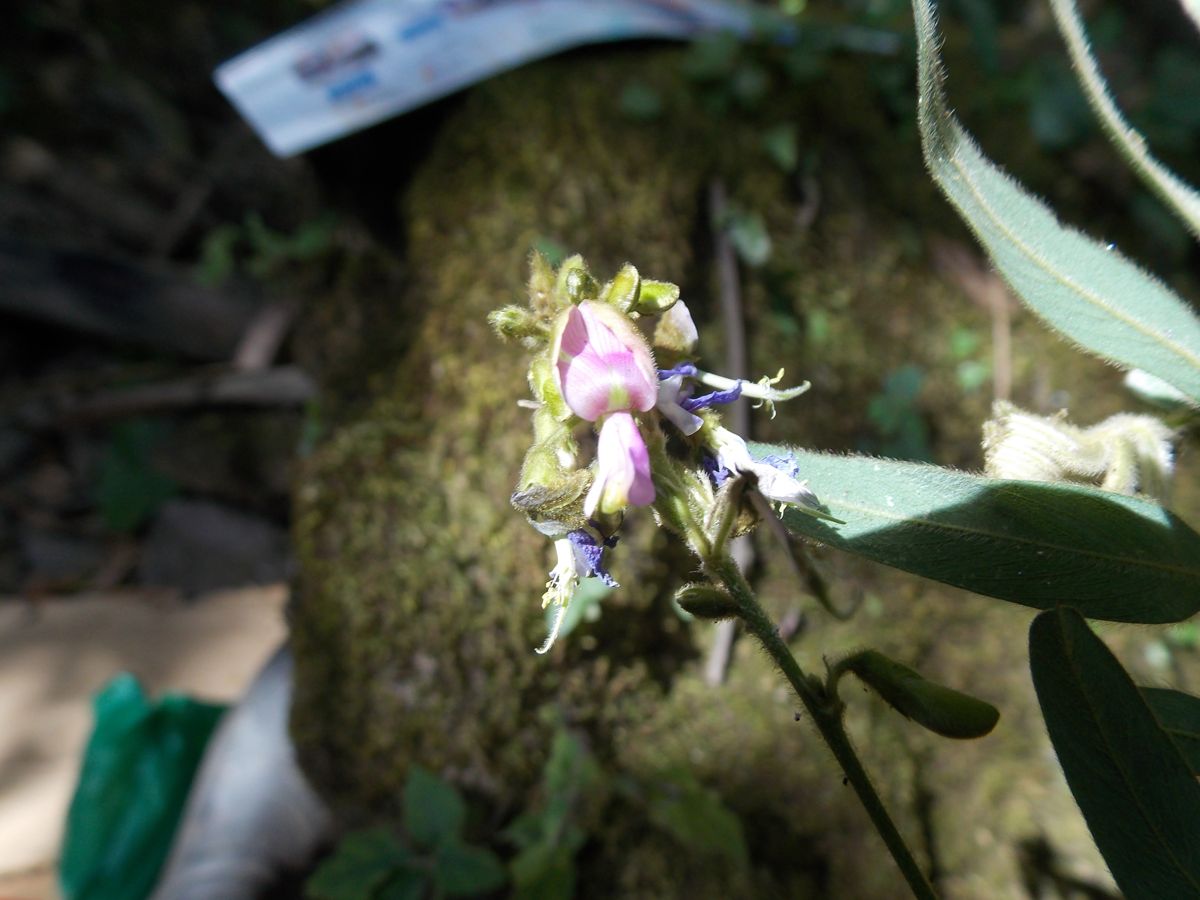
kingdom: Plantae
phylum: Tracheophyta
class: Magnoliopsida
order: Fabales
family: Fabaceae
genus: Tephrosia
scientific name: Tephrosia multifolia
